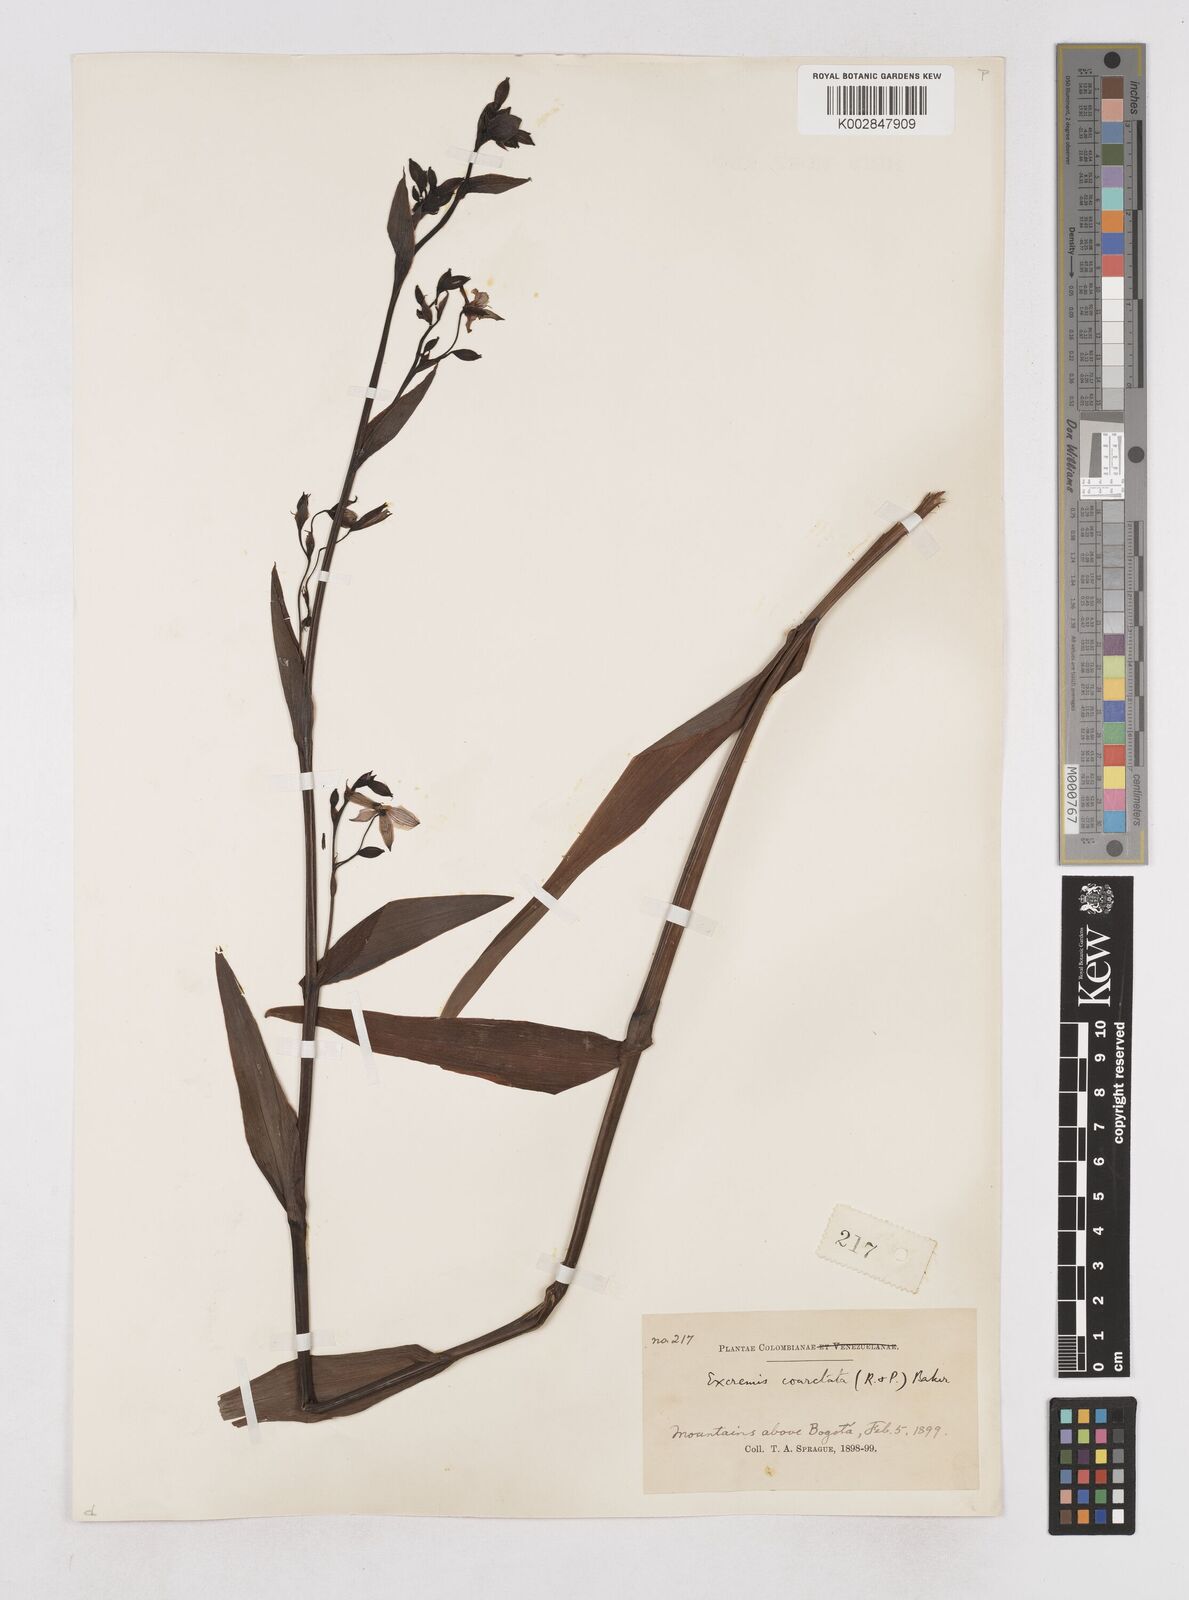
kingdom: Plantae
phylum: Tracheophyta
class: Liliopsida
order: Asparagales
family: Asphodelaceae
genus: Excremis
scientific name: Excremis coarctata
